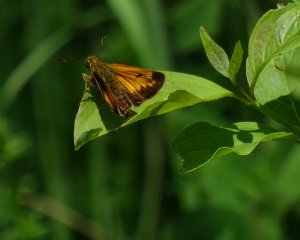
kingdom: Animalia
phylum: Arthropoda
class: Insecta
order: Lepidoptera
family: Hesperiidae
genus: Lon
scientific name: Lon hobomok
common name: Hobomok Skipper
